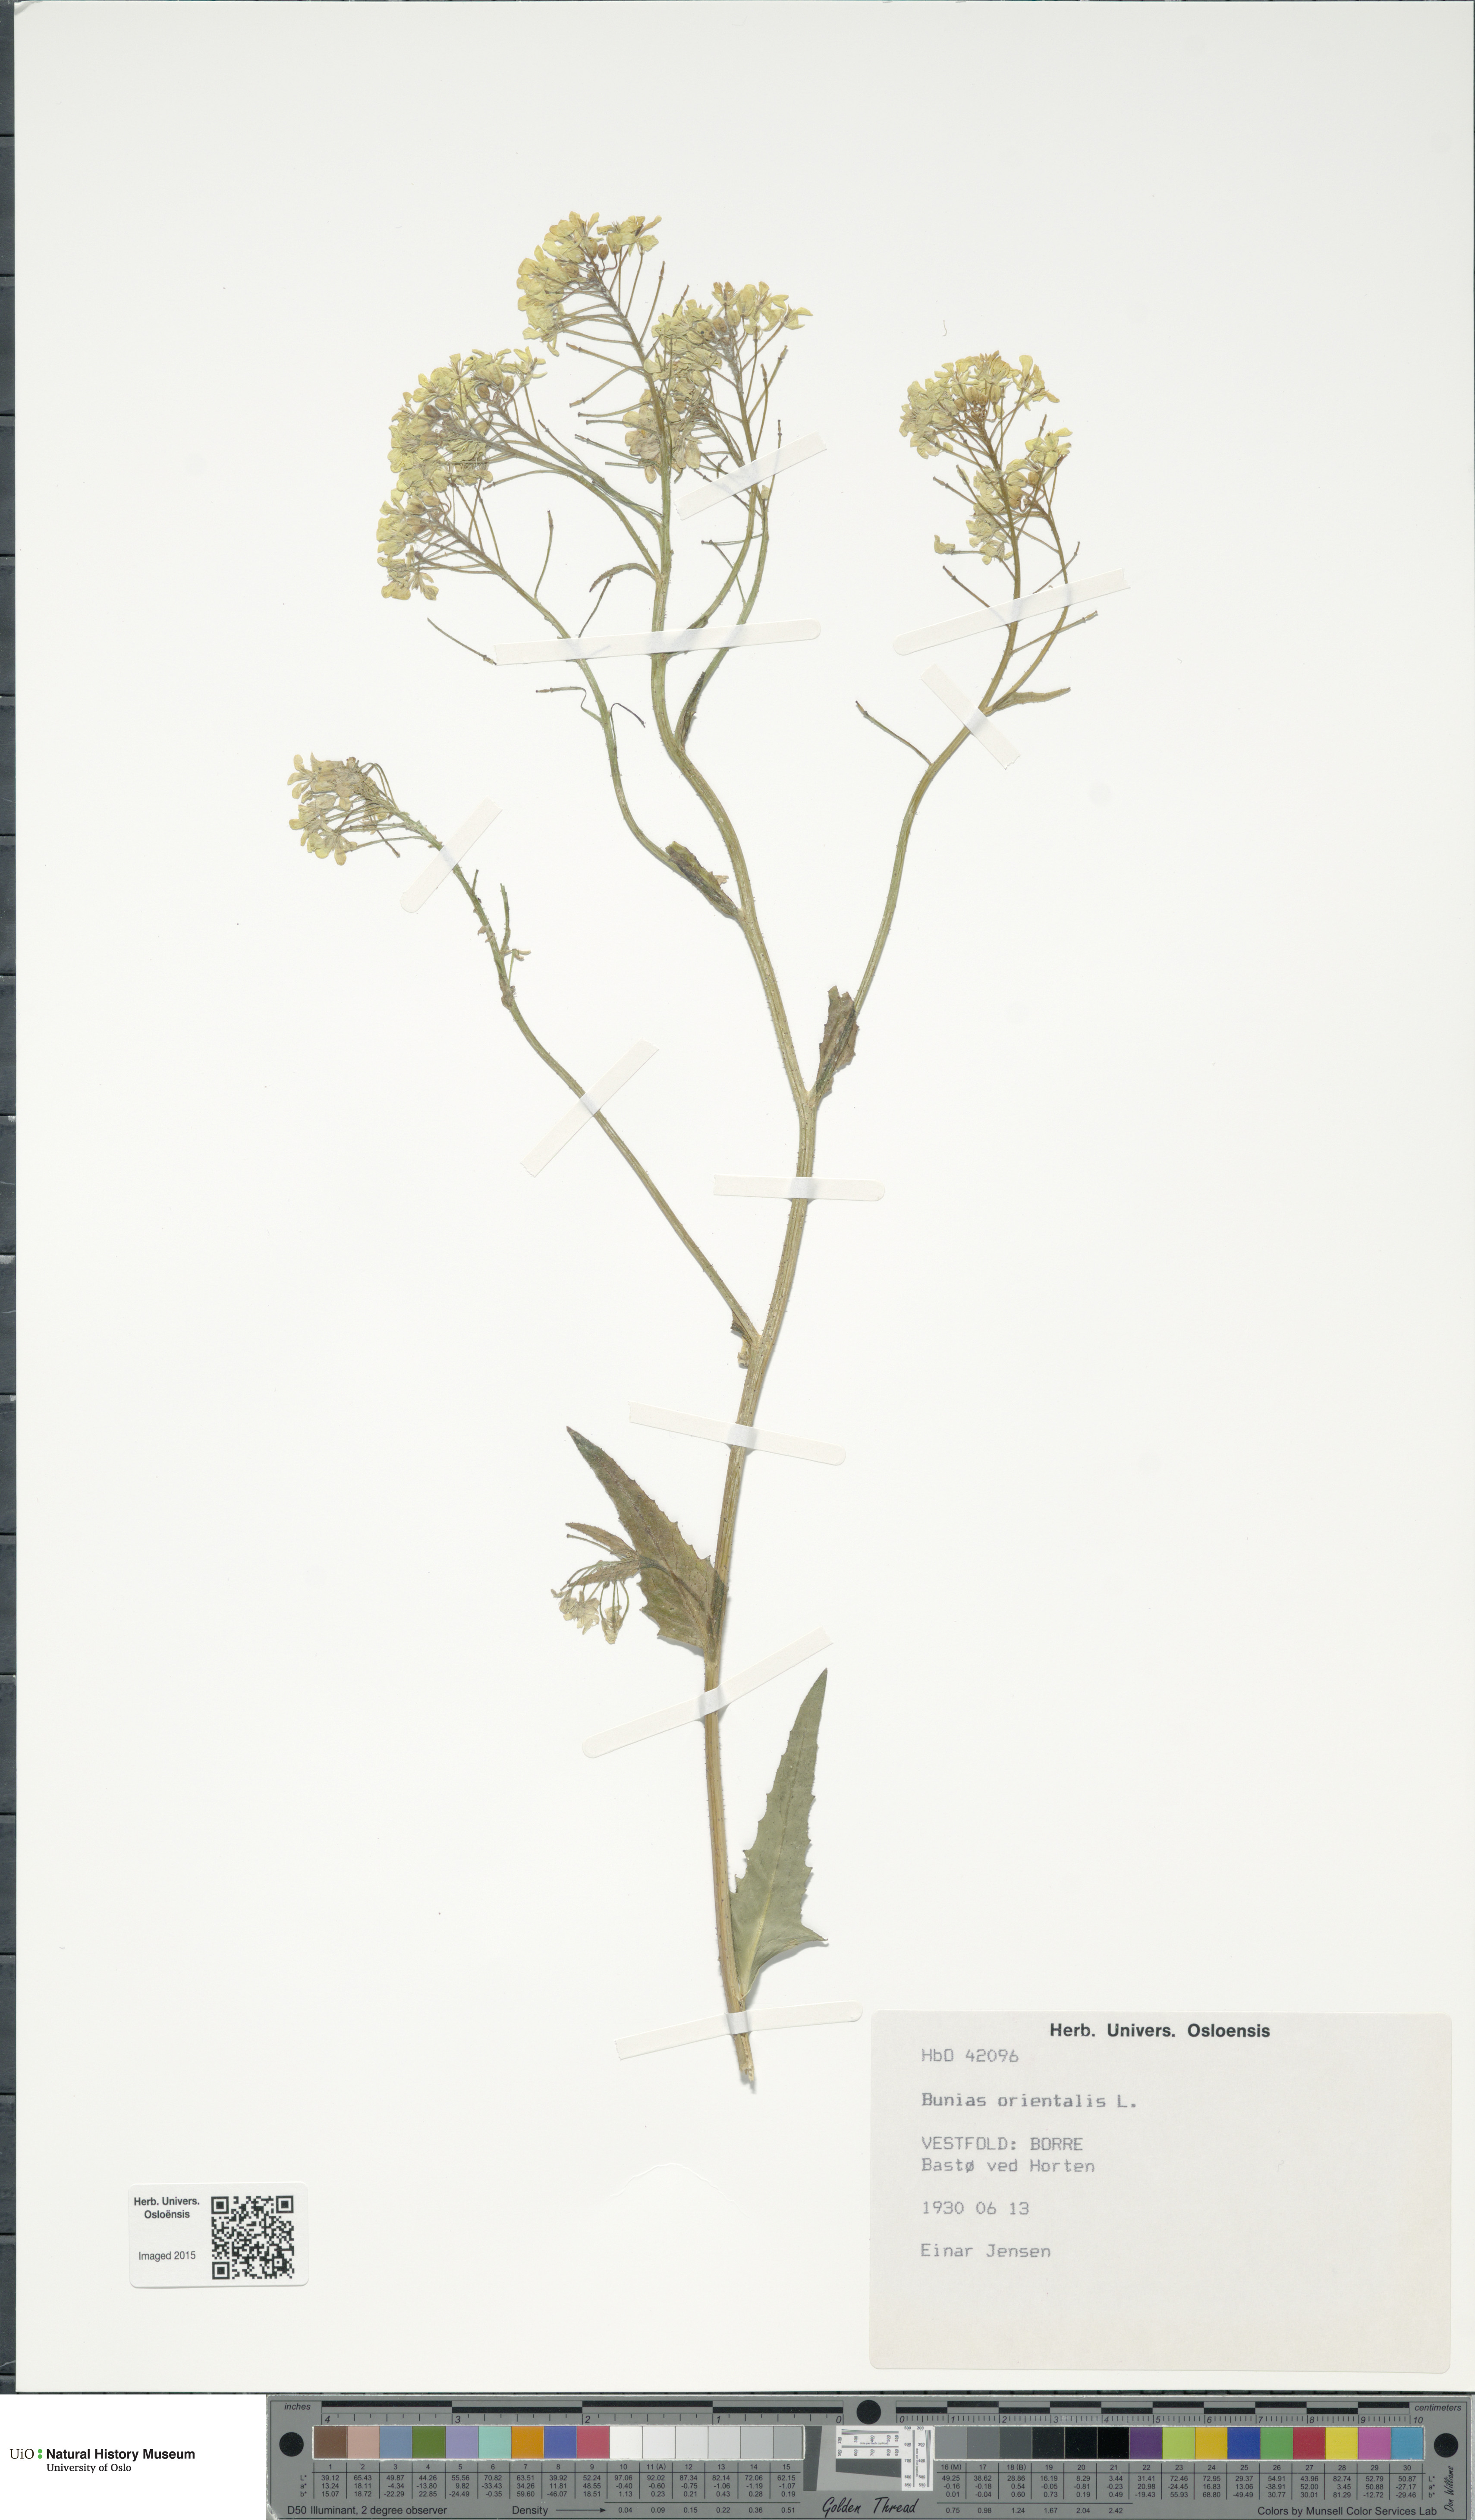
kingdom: Plantae
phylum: Tracheophyta
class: Magnoliopsida
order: Brassicales
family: Brassicaceae
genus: Bunias
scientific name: Bunias orientalis
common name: Warty-cabbage
